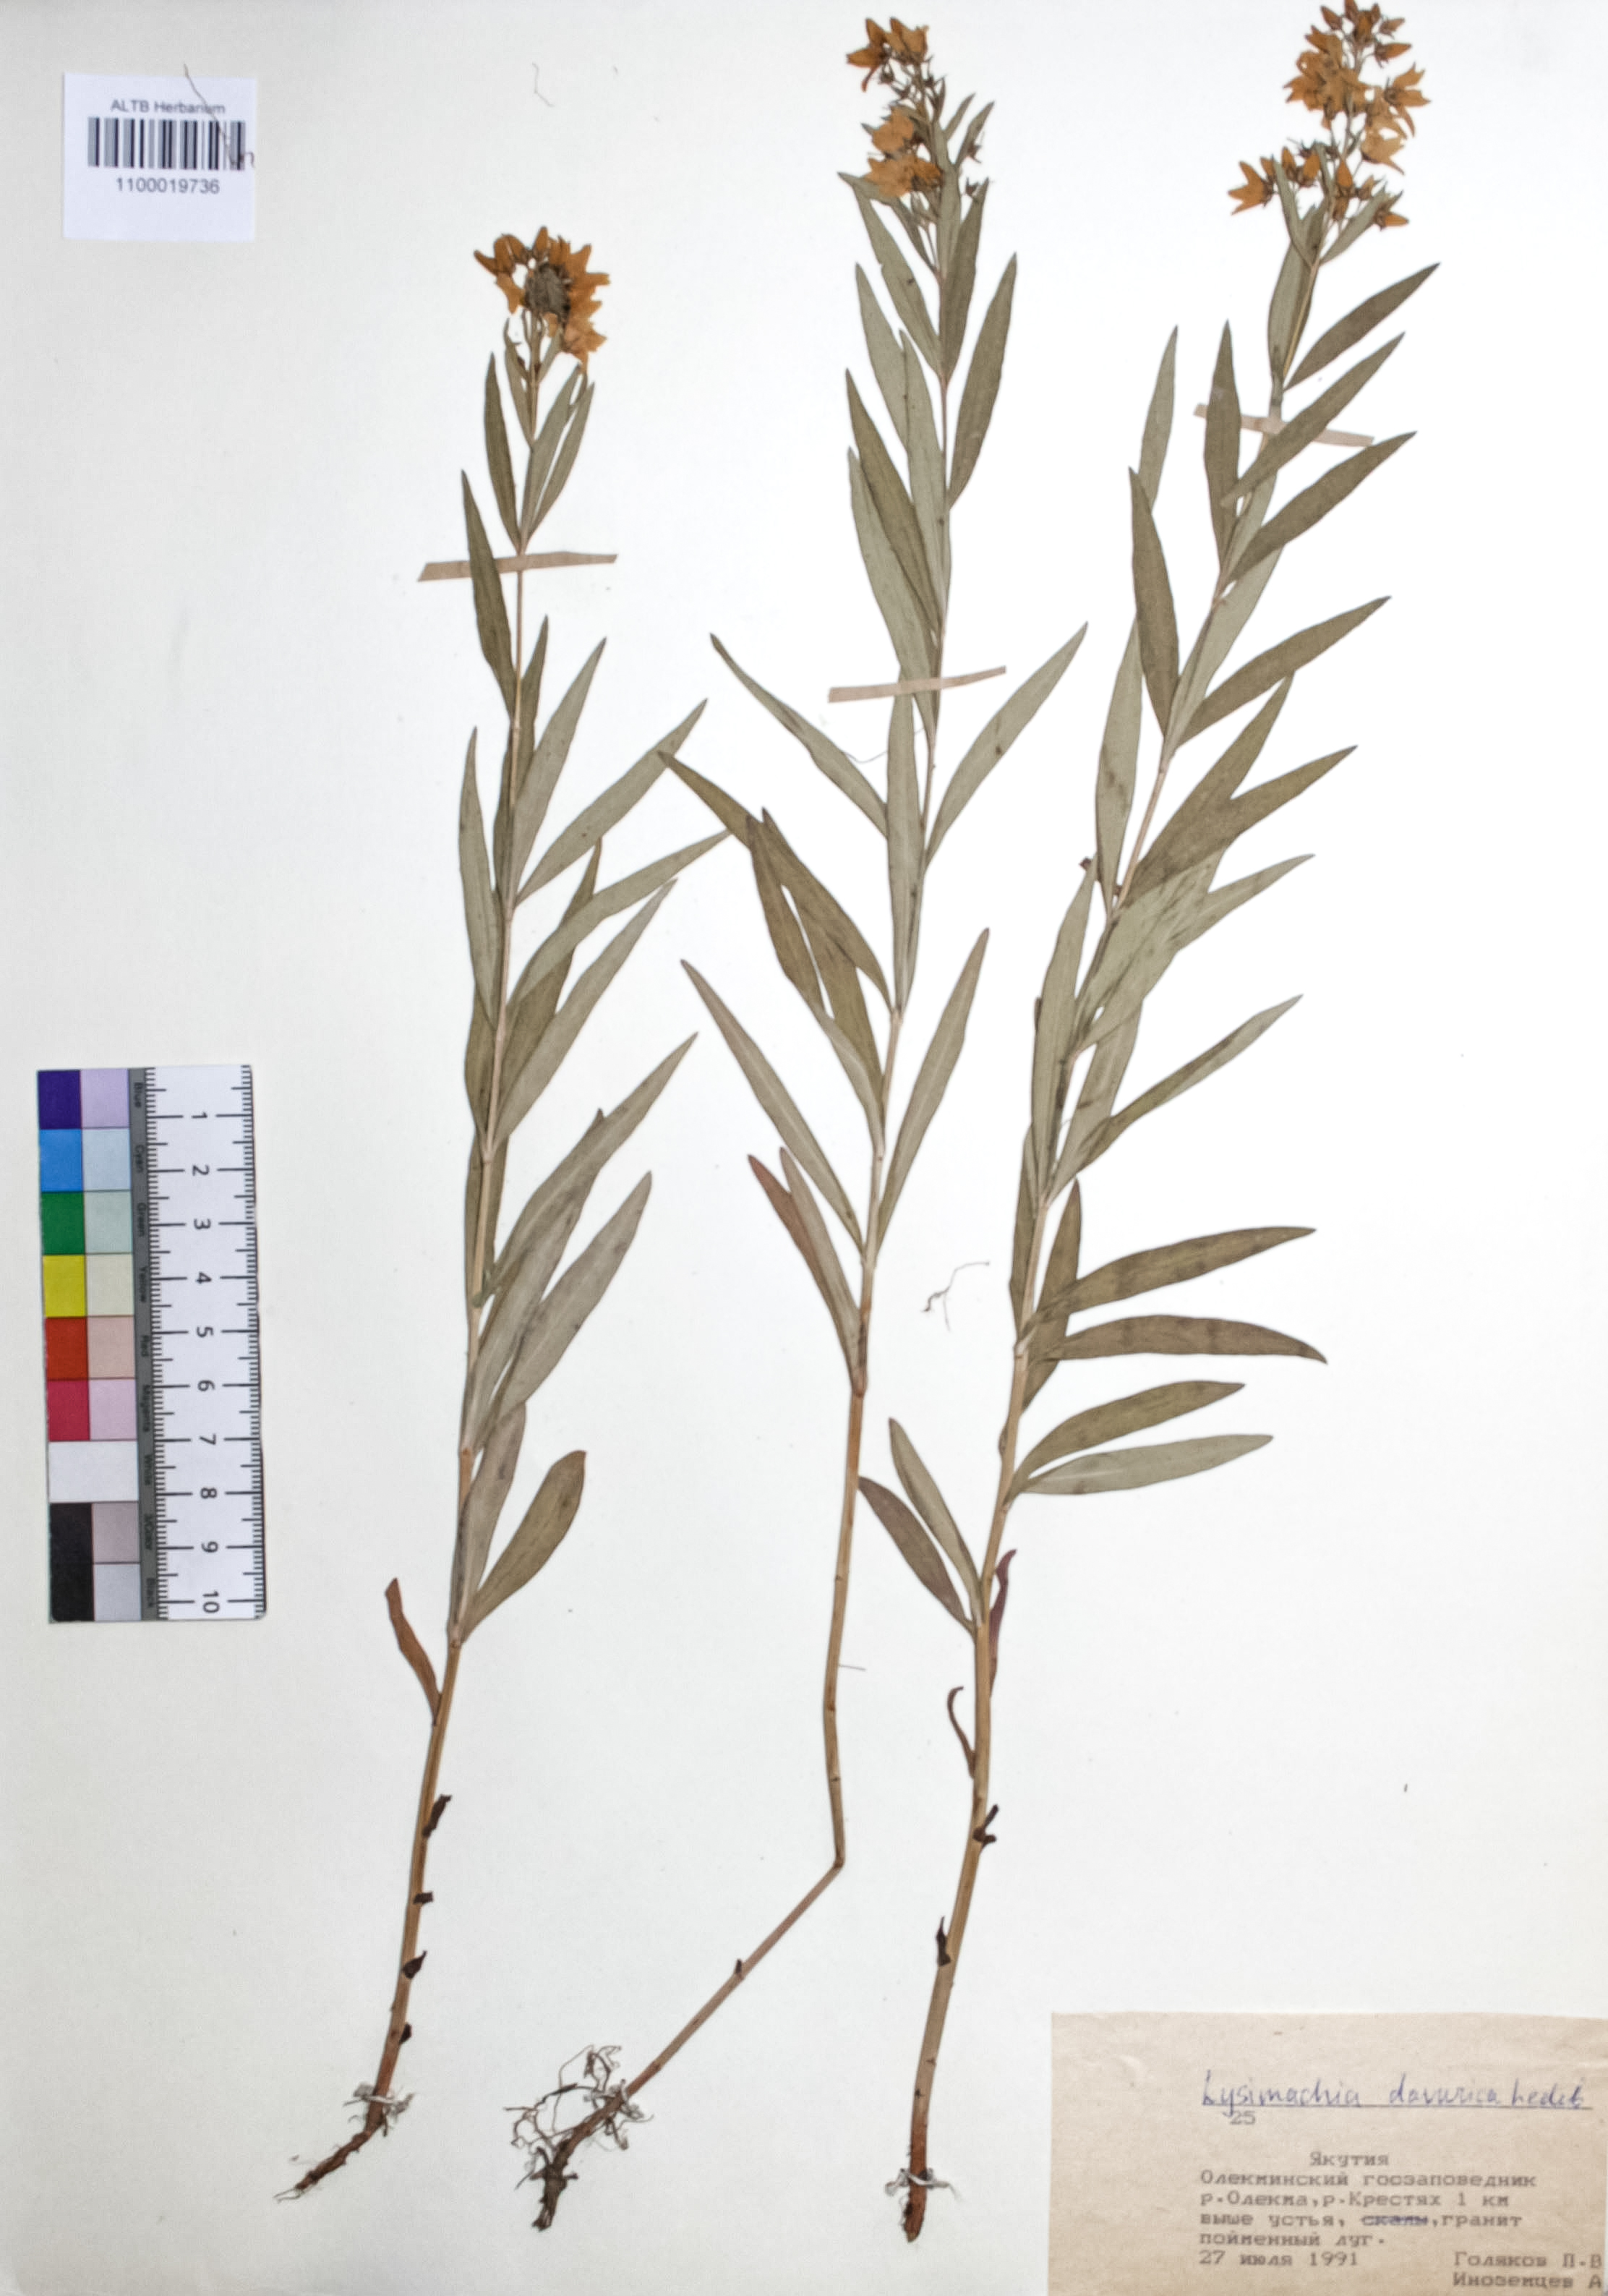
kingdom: Plantae
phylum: Tracheophyta
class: Magnoliopsida
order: Ericales
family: Primulaceae
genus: Lysimachia
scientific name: Lysimachia davurica
